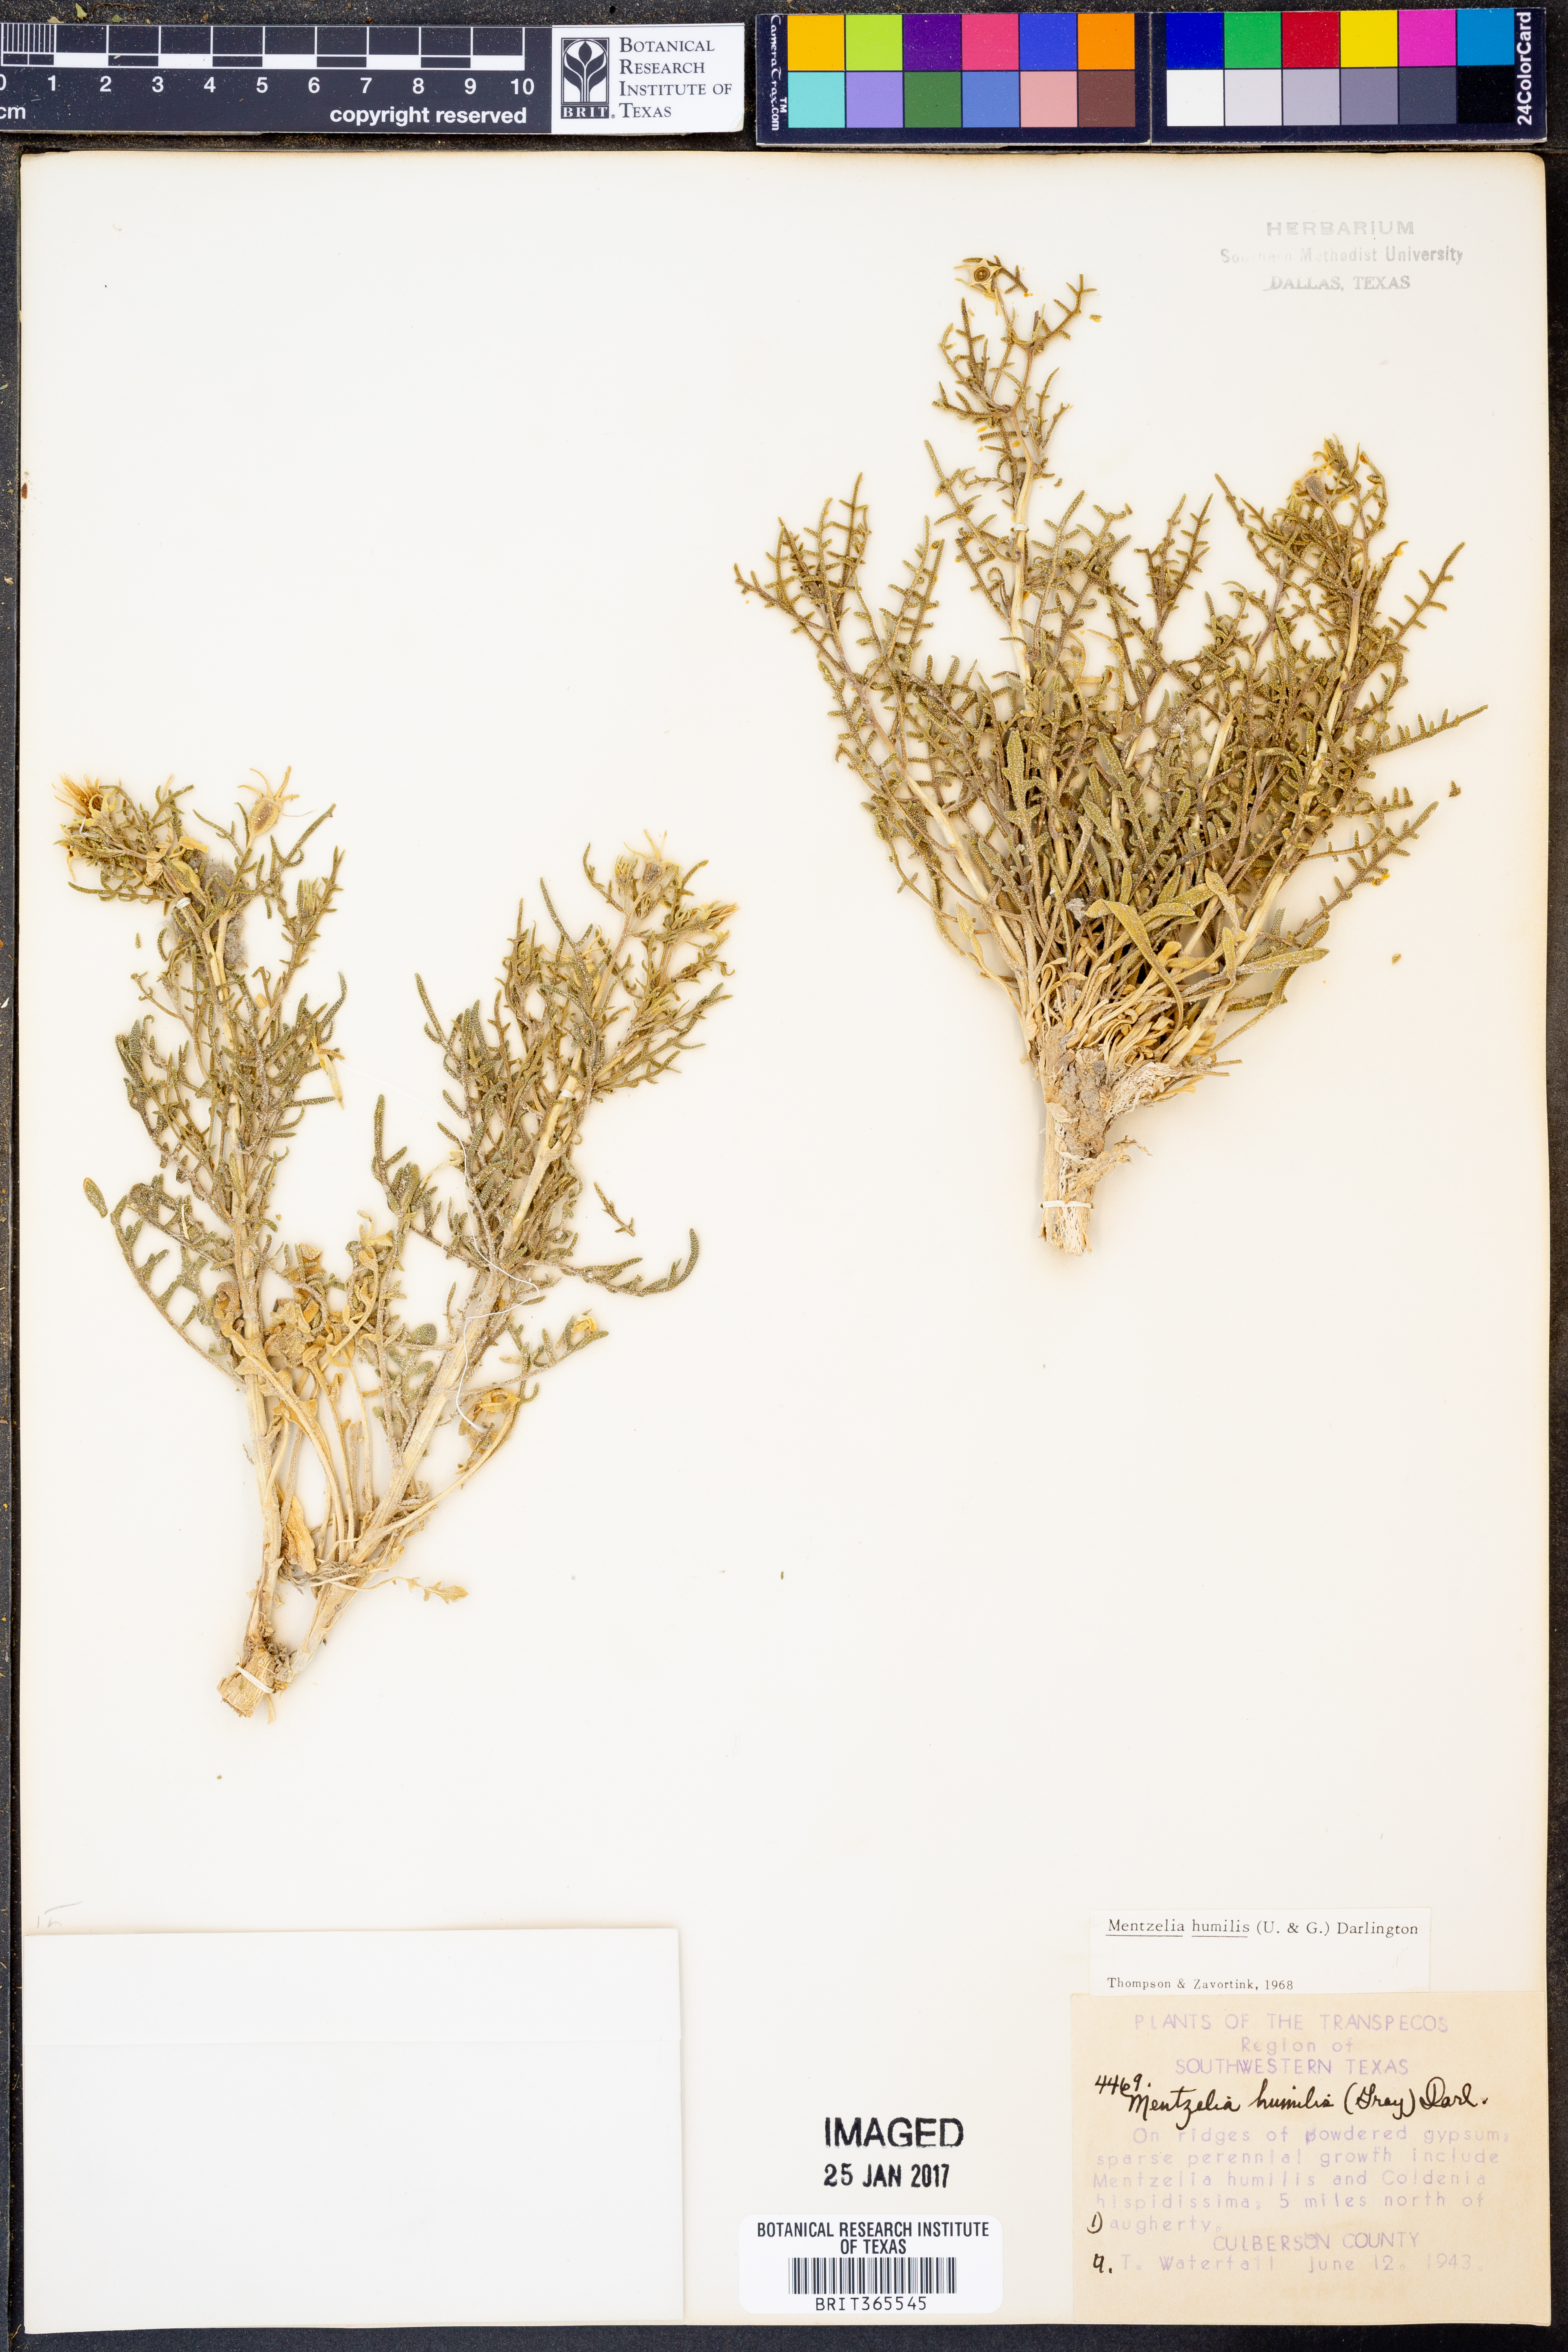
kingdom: Plantae
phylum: Tracheophyta
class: Magnoliopsida
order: Cornales
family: Loasaceae
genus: Mentzelia
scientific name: Mentzelia humilis
